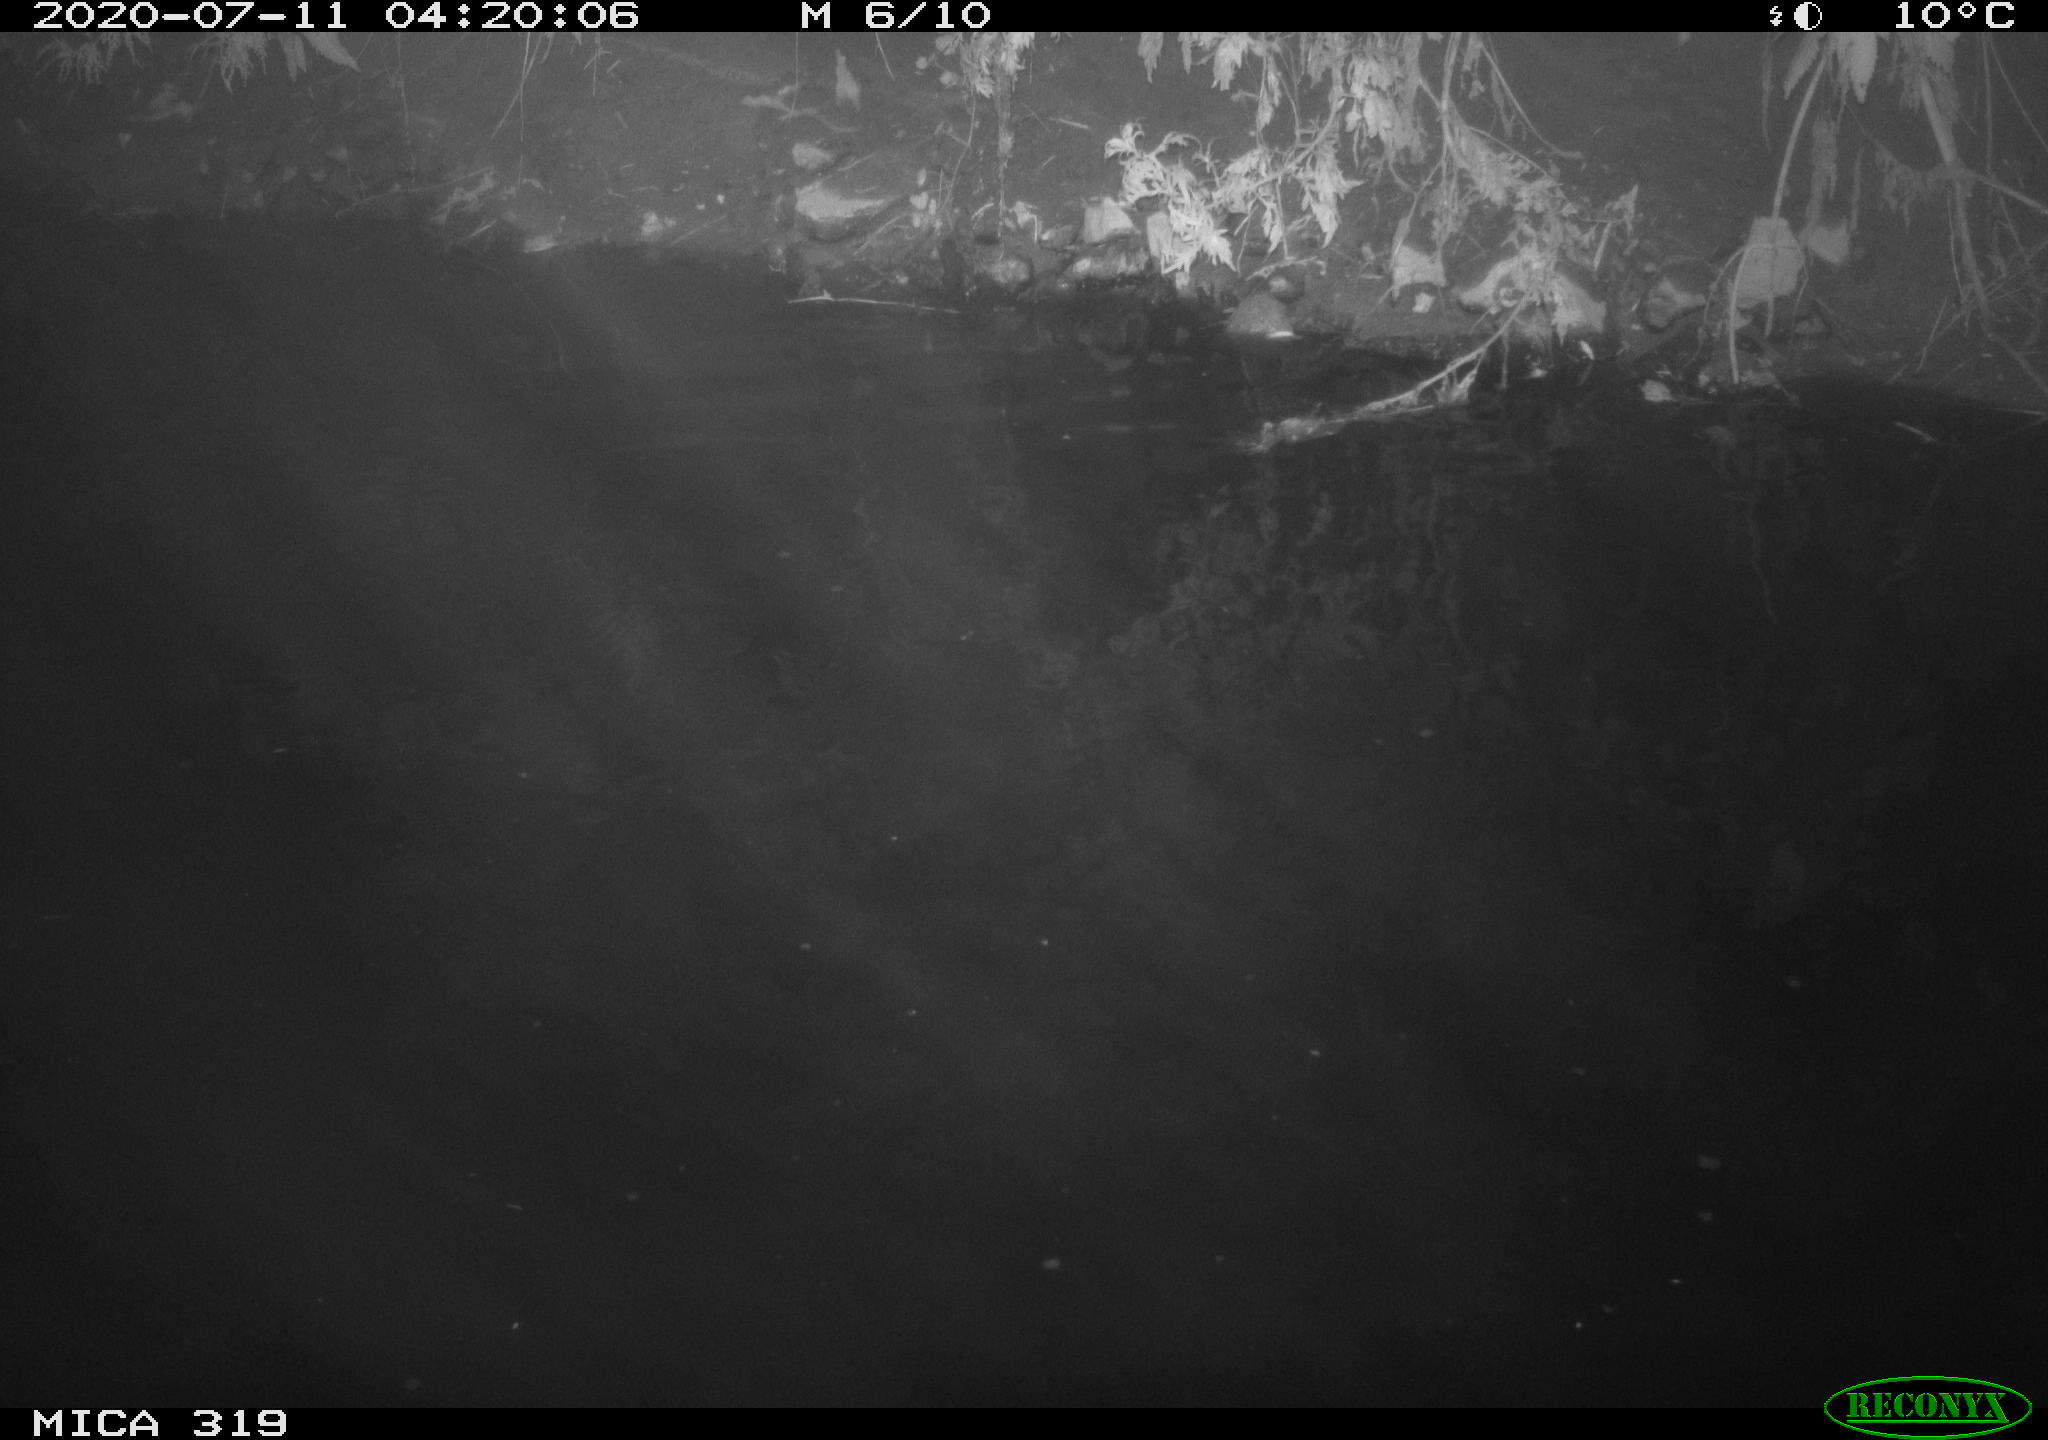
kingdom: Animalia
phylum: Chordata
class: Aves
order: Anseriformes
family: Anatidae
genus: Anas
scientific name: Anas platyrhynchos
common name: Mallard
